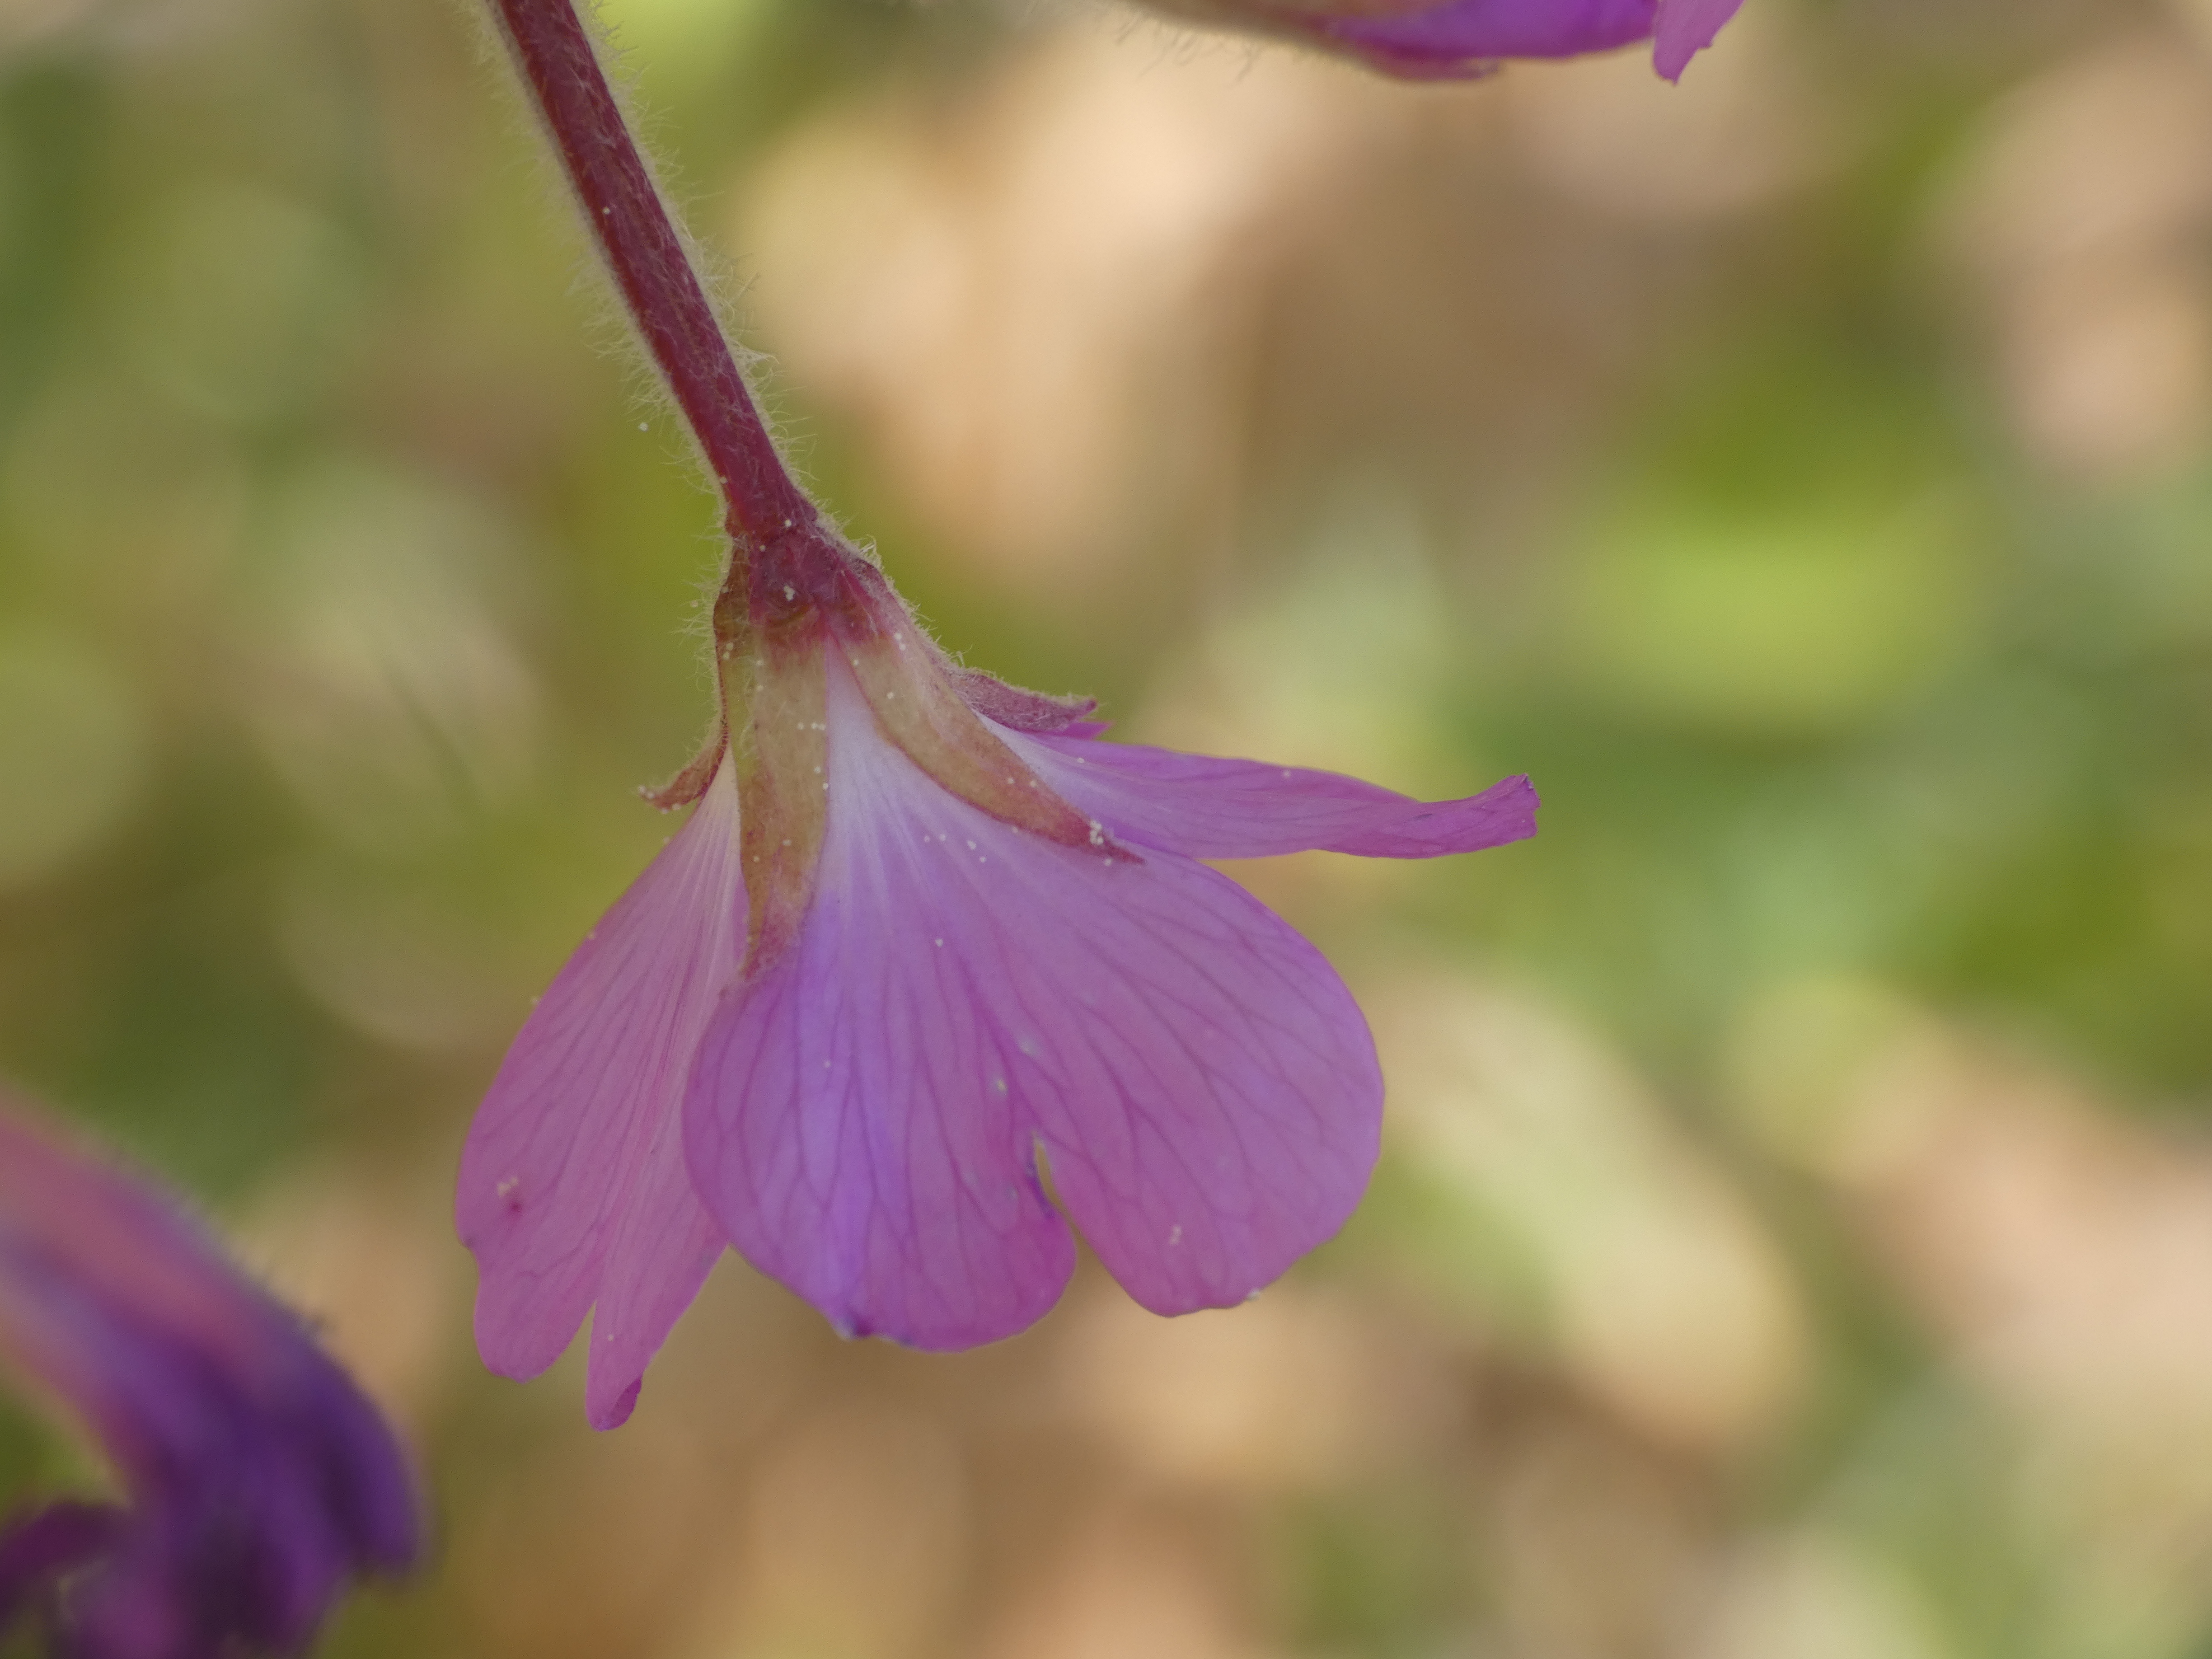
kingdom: Plantae
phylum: Tracheophyta
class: Magnoliopsida
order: Myrtales
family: Onagraceae
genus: Epilobium
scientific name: Epilobium hirsutum
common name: Lådden dueurt
